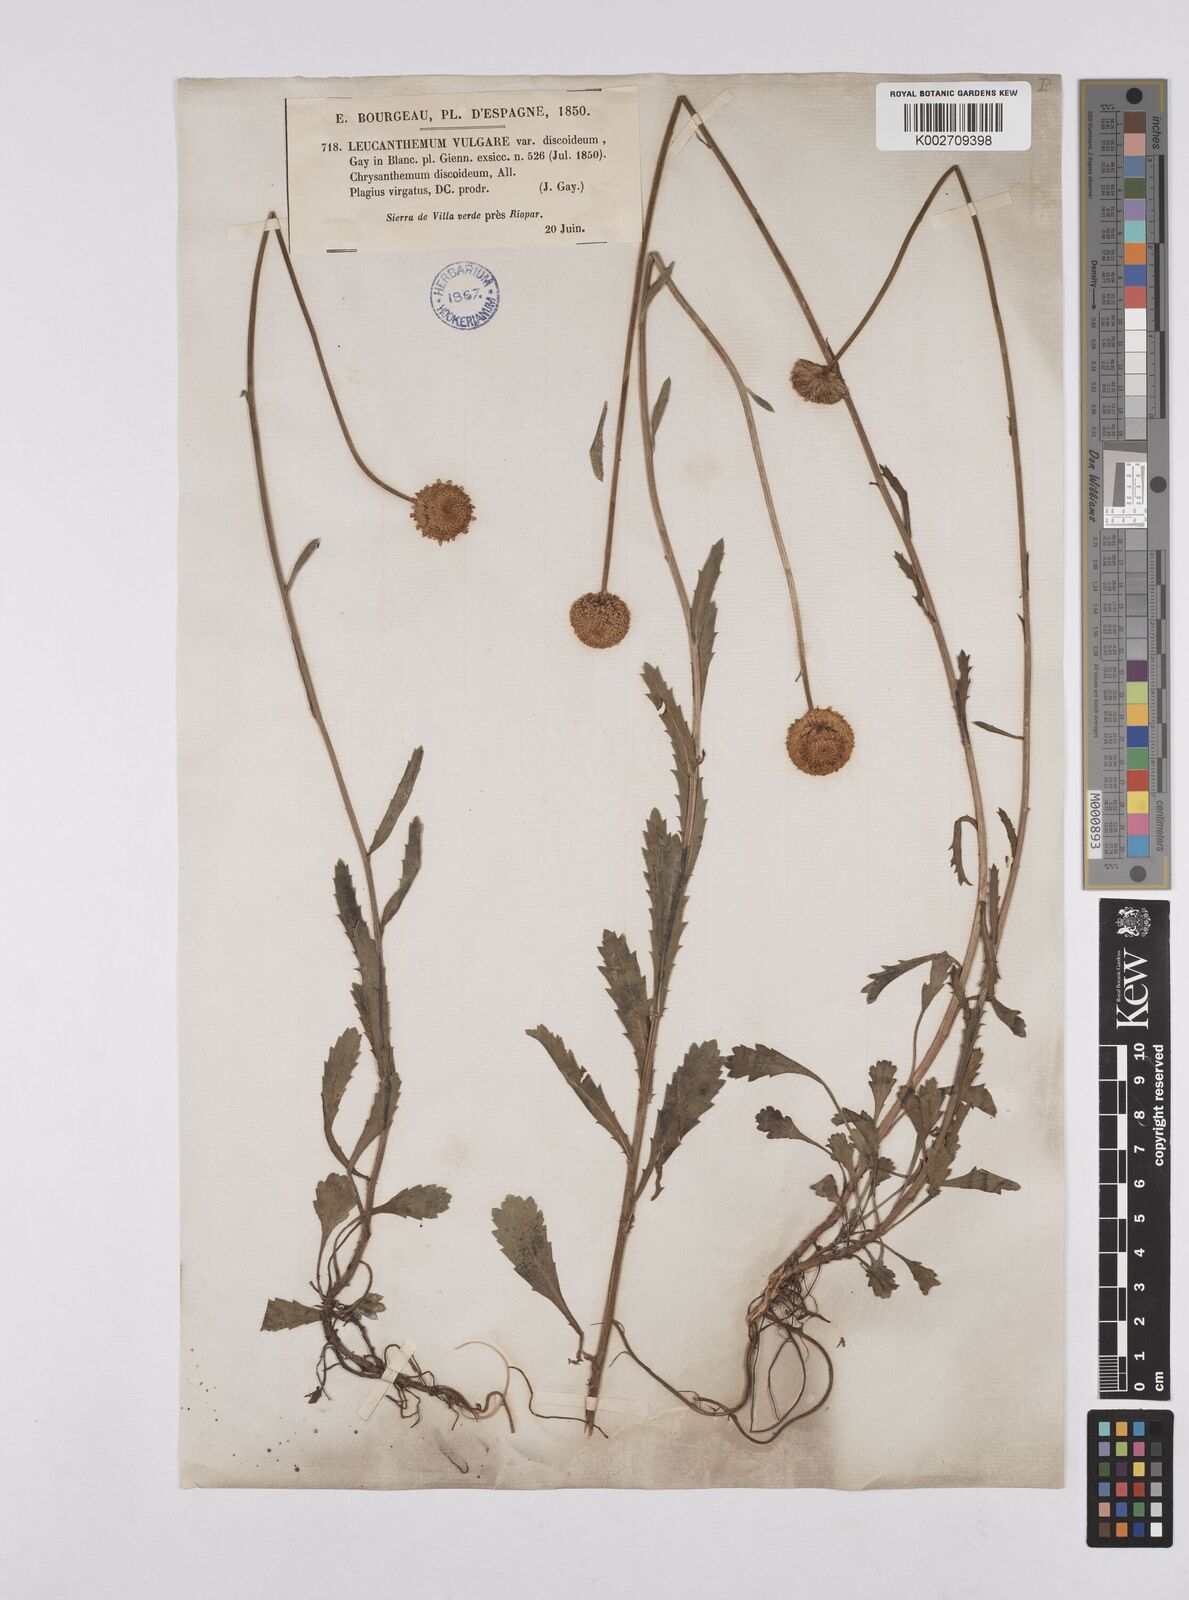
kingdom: Plantae
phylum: Tracheophyta
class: Magnoliopsida
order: Asterales
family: Asteraceae
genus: Leucanthemum
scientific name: Leucanthemum vulgare
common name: Oxeye daisy
